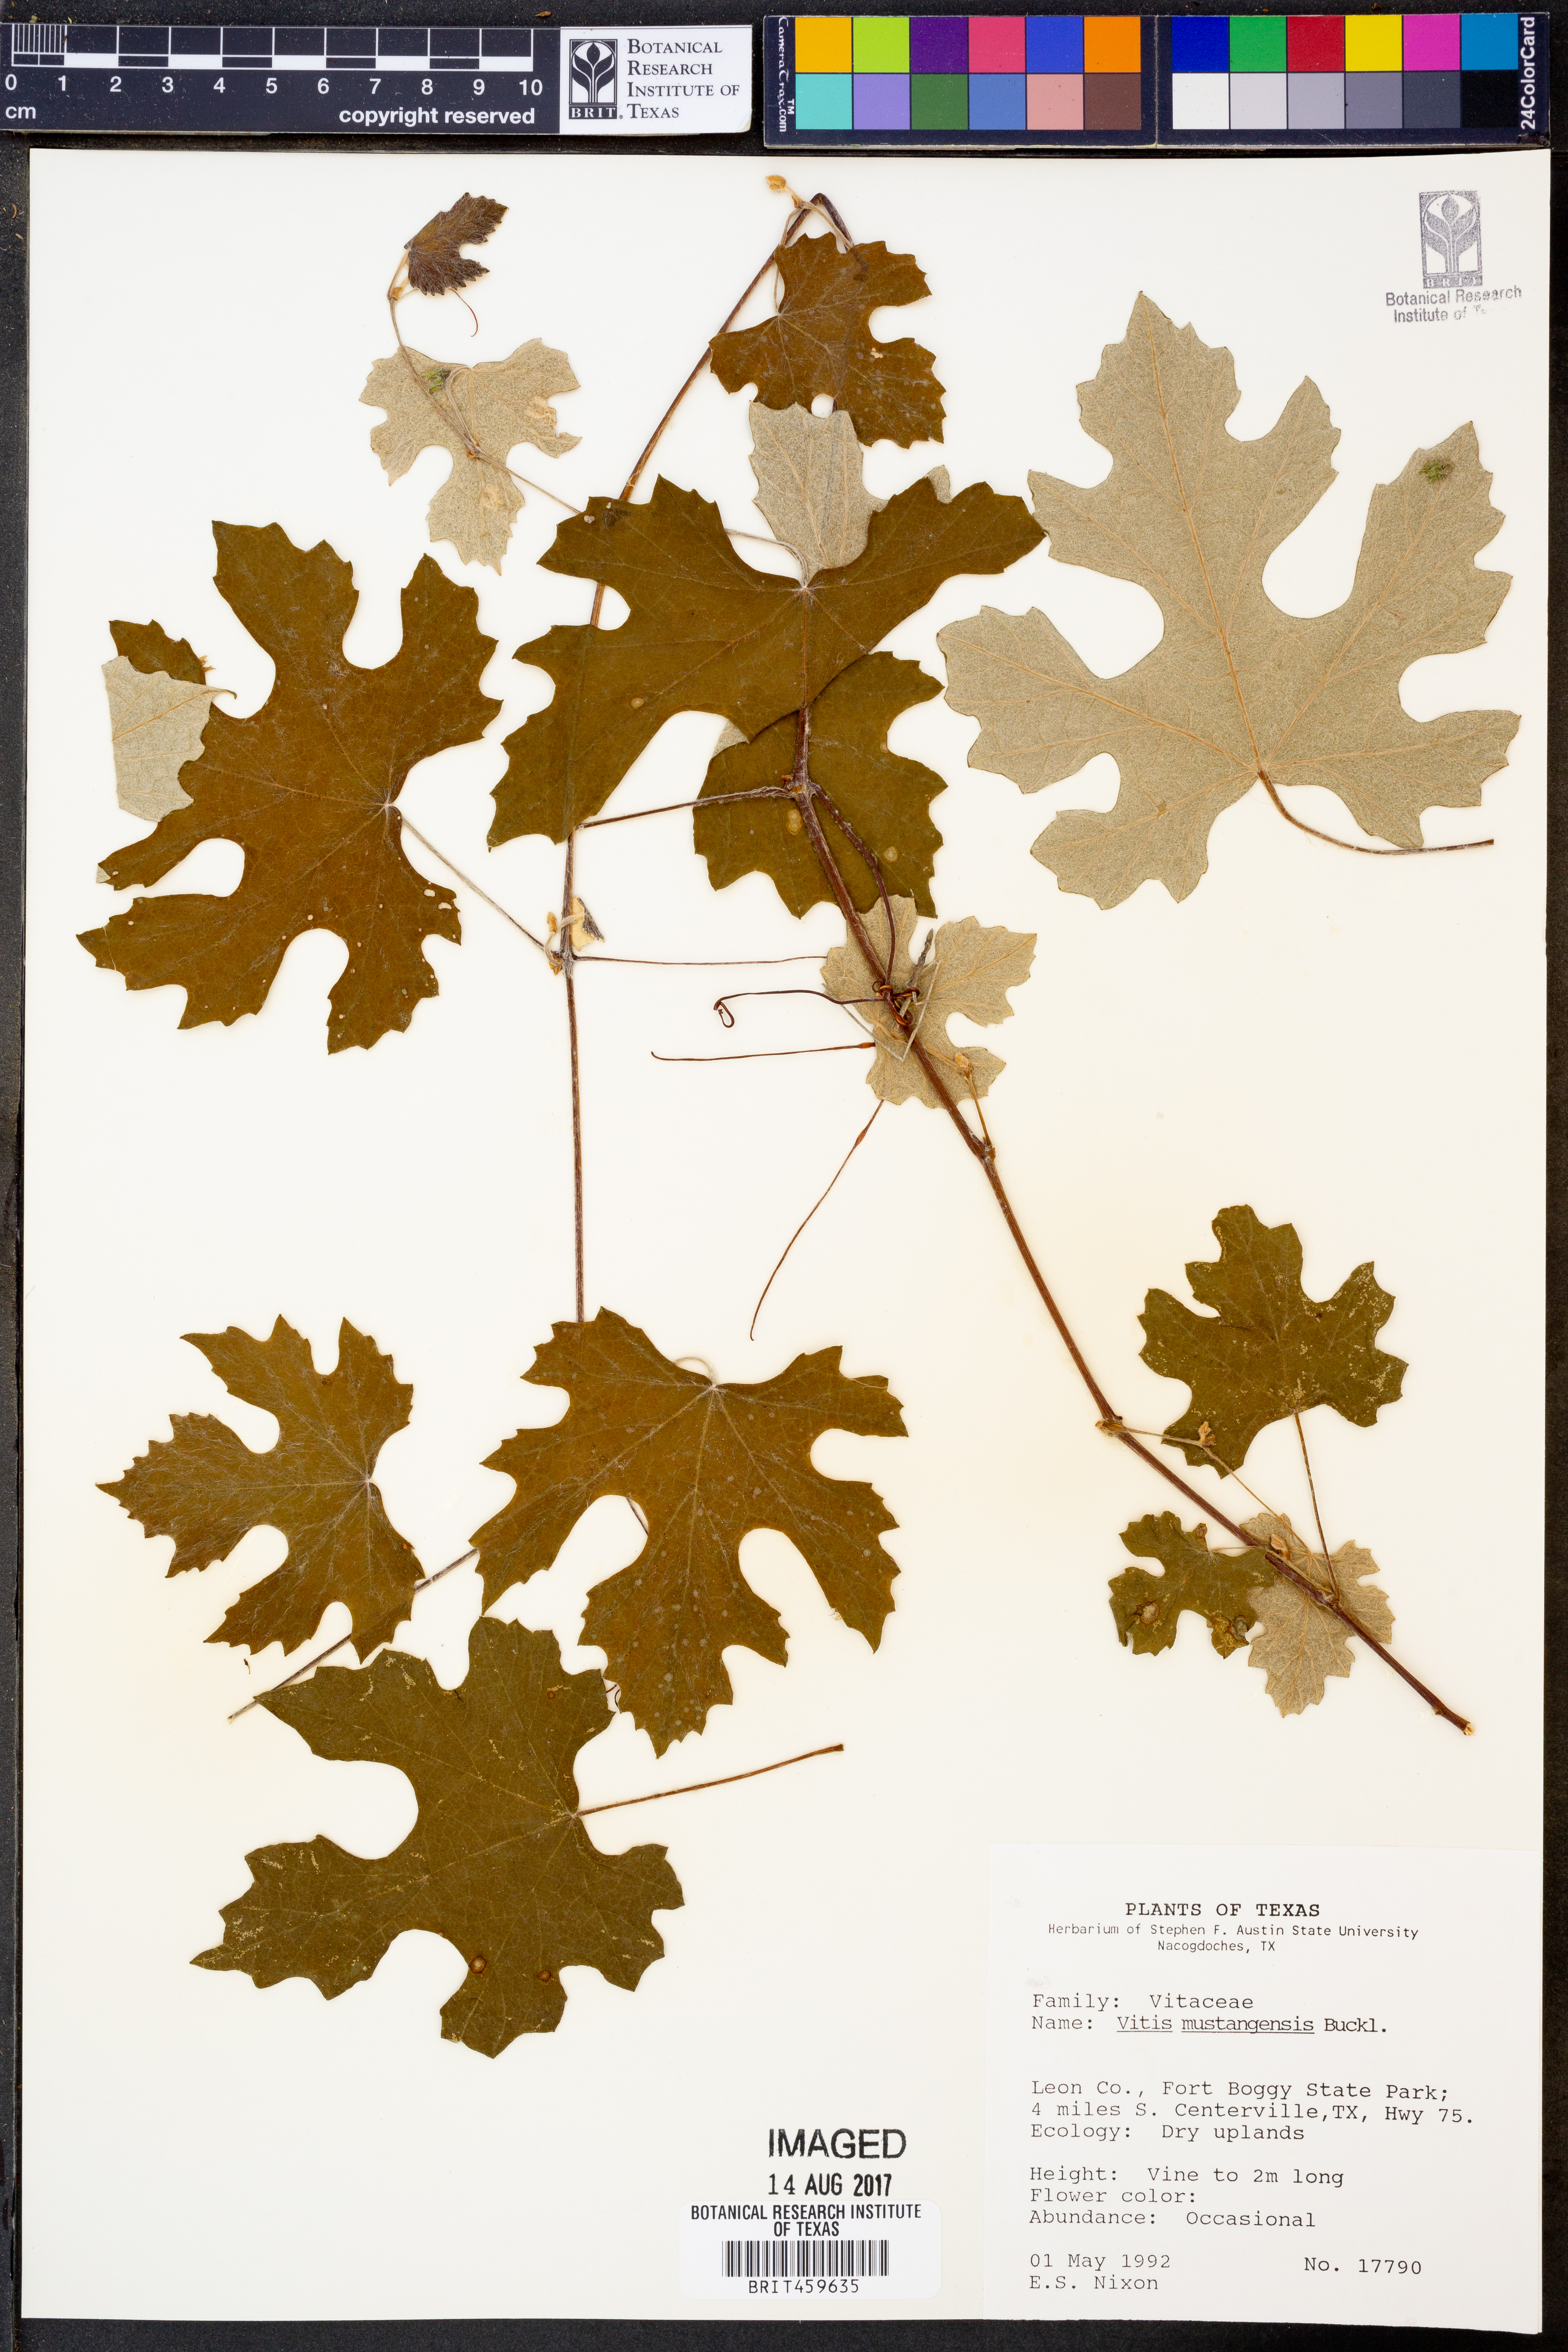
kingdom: Plantae
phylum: Tracheophyta
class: Magnoliopsida
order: Vitales
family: Vitaceae
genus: Vitis
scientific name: Vitis mustangensis
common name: Mustang grape
